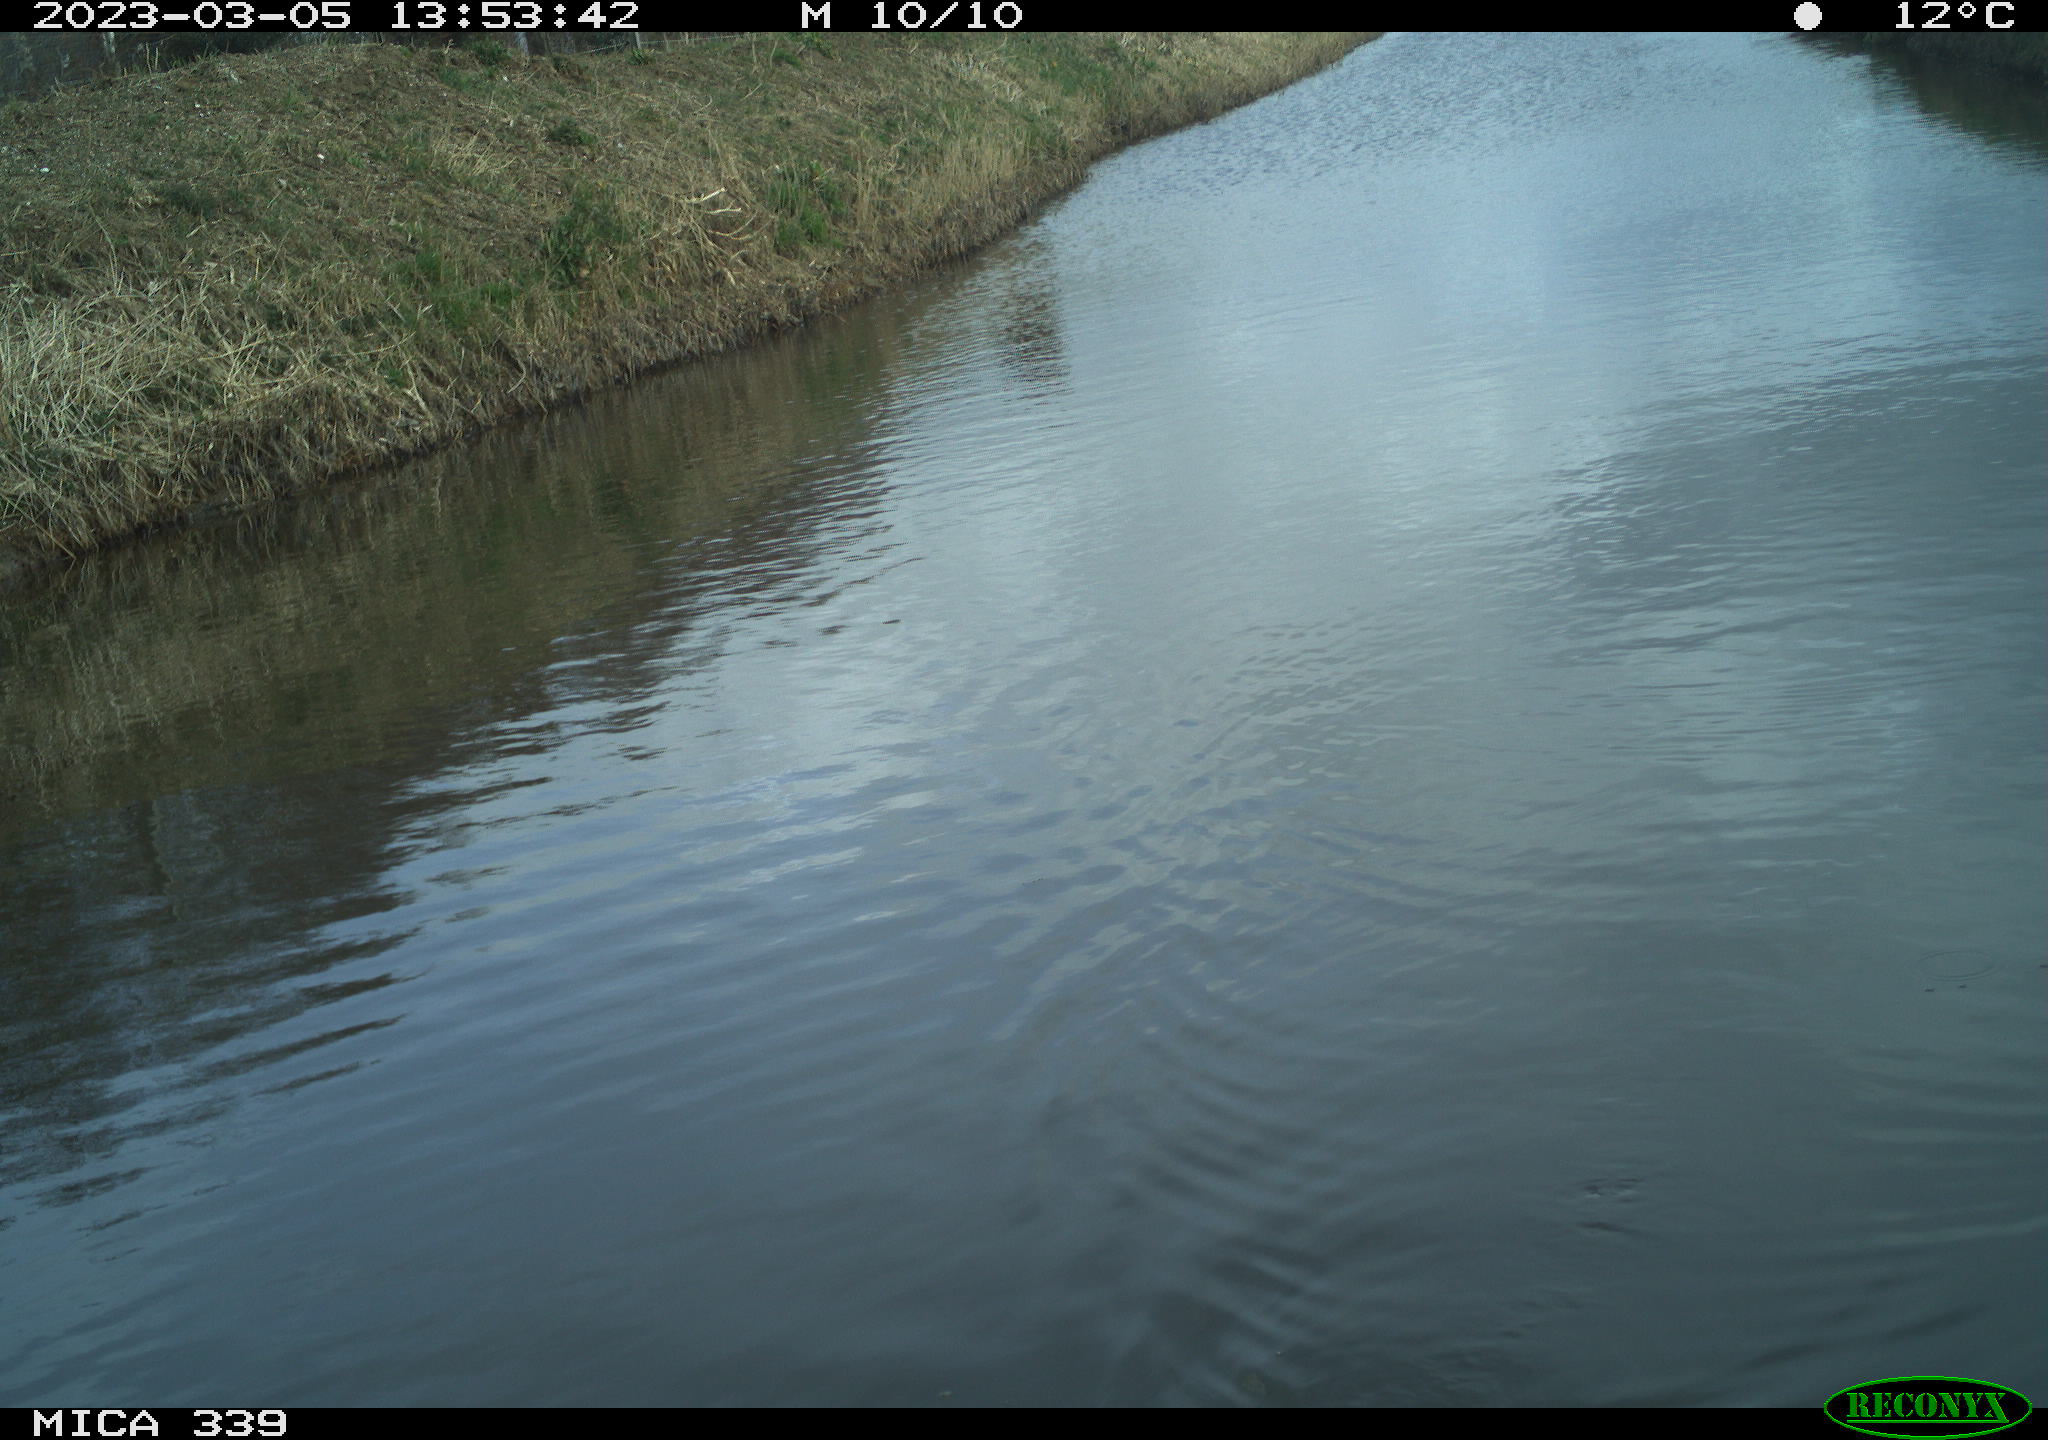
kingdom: Animalia
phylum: Chordata
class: Aves
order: Gruiformes
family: Rallidae
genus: Fulica
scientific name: Fulica atra
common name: Eurasian coot
